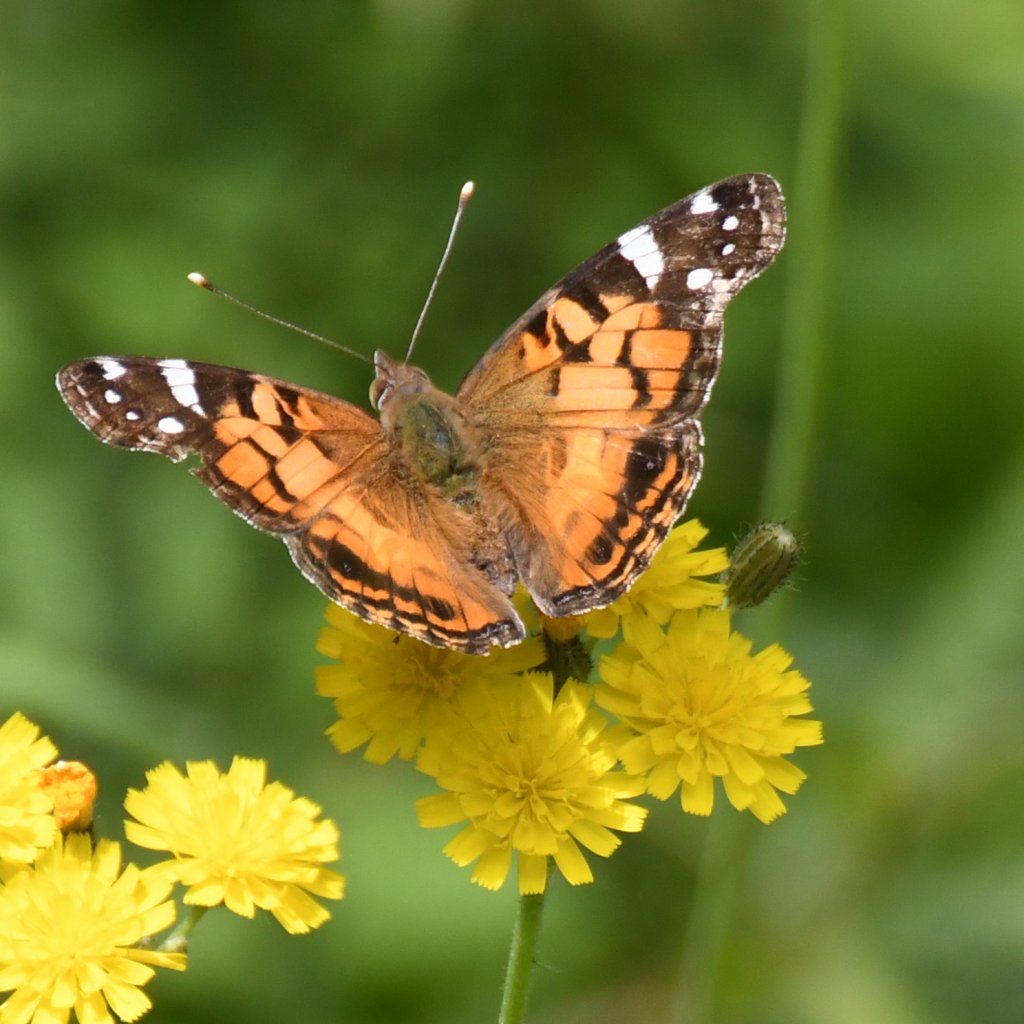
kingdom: Animalia
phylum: Arthropoda
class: Insecta
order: Lepidoptera
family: Nymphalidae
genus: Vanessa
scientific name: Vanessa virginiensis
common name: American Lady
